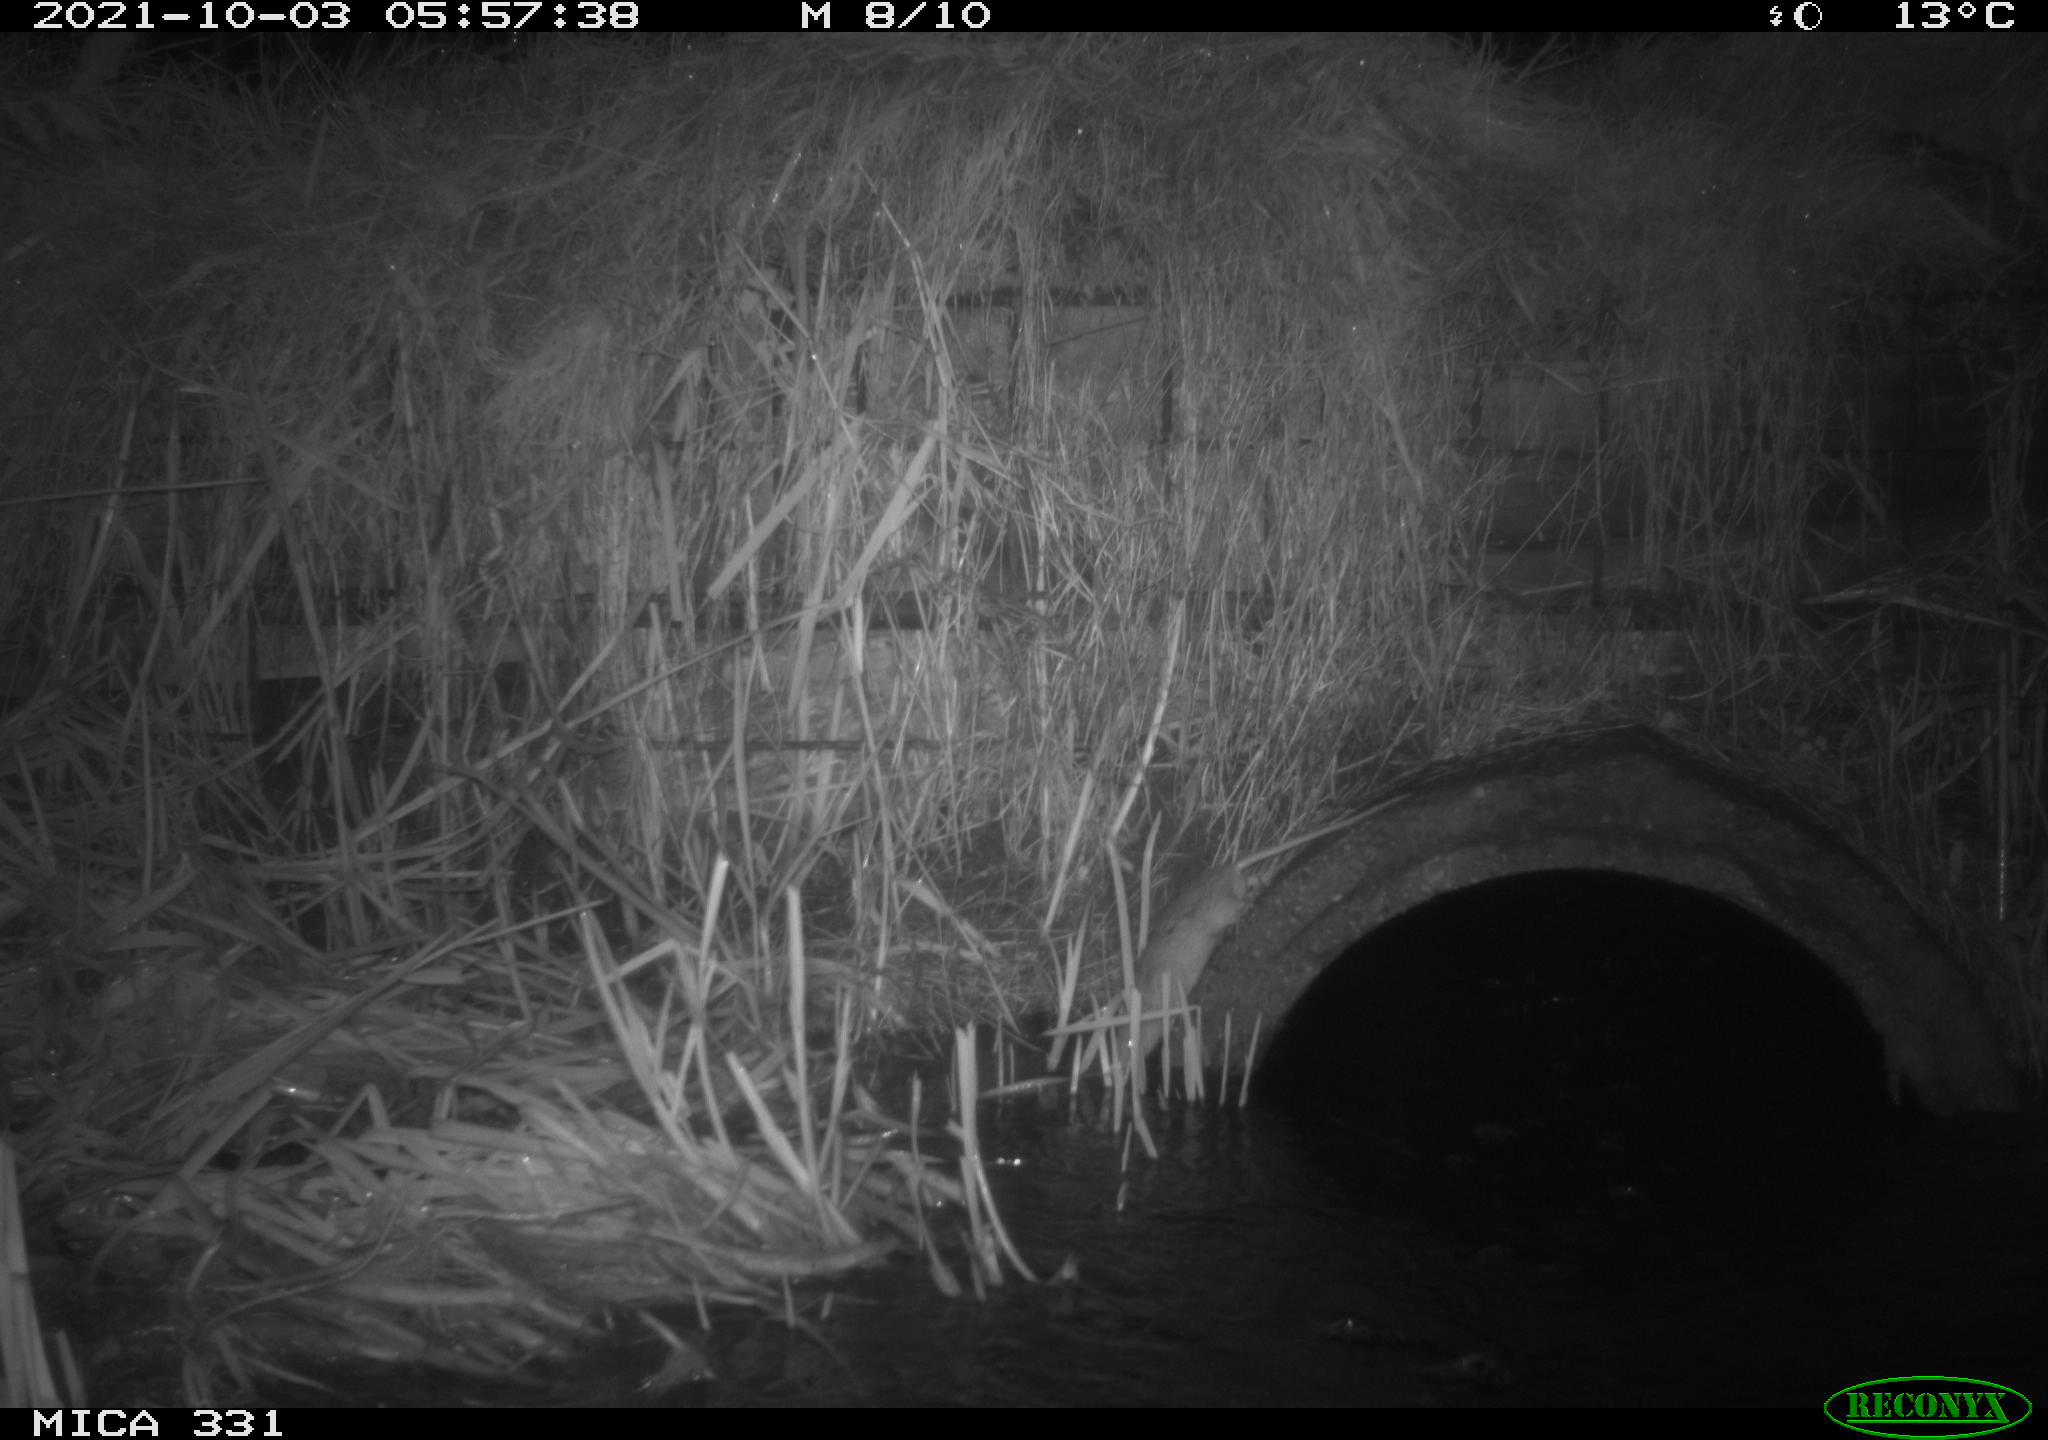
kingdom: Animalia
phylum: Chordata
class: Mammalia
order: Rodentia
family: Muridae
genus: Rattus
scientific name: Rattus norvegicus
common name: Brown rat
